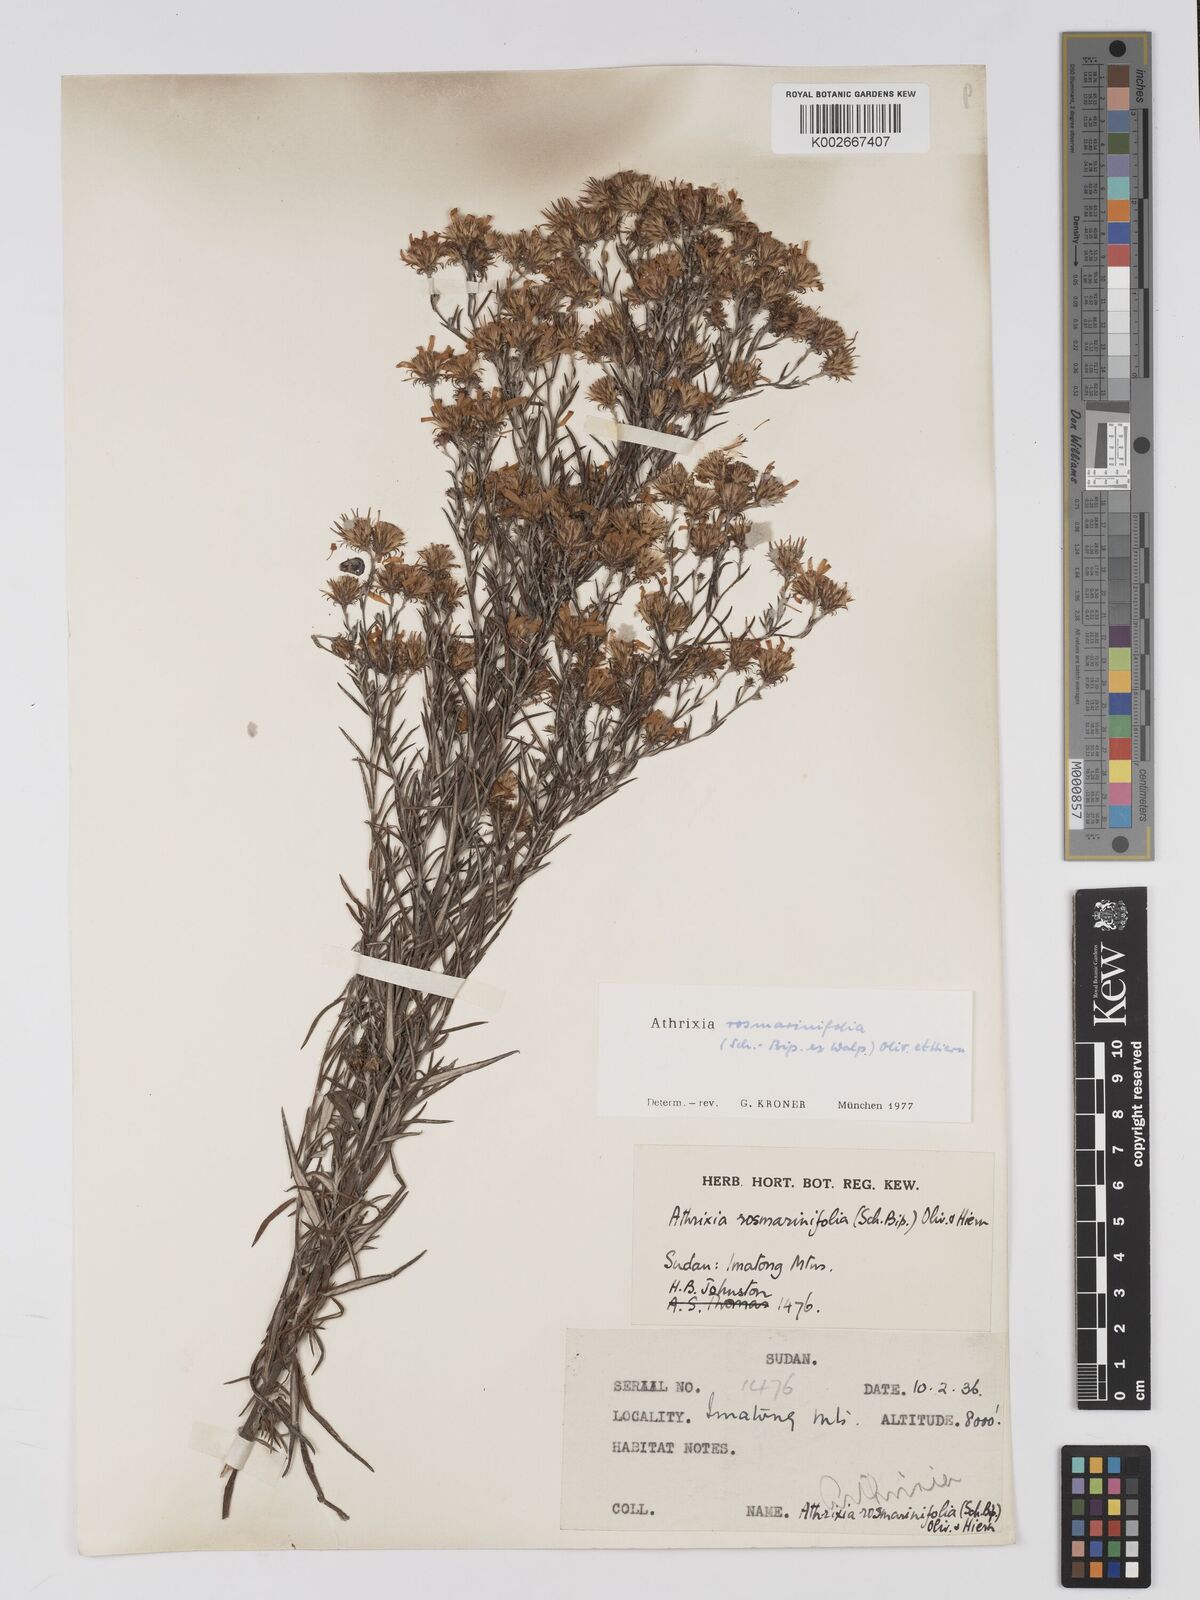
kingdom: Plantae
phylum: Tracheophyta
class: Magnoliopsida
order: Asterales
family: Asteraceae
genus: Athrixia
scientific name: Athrixia rosmarinifolia
